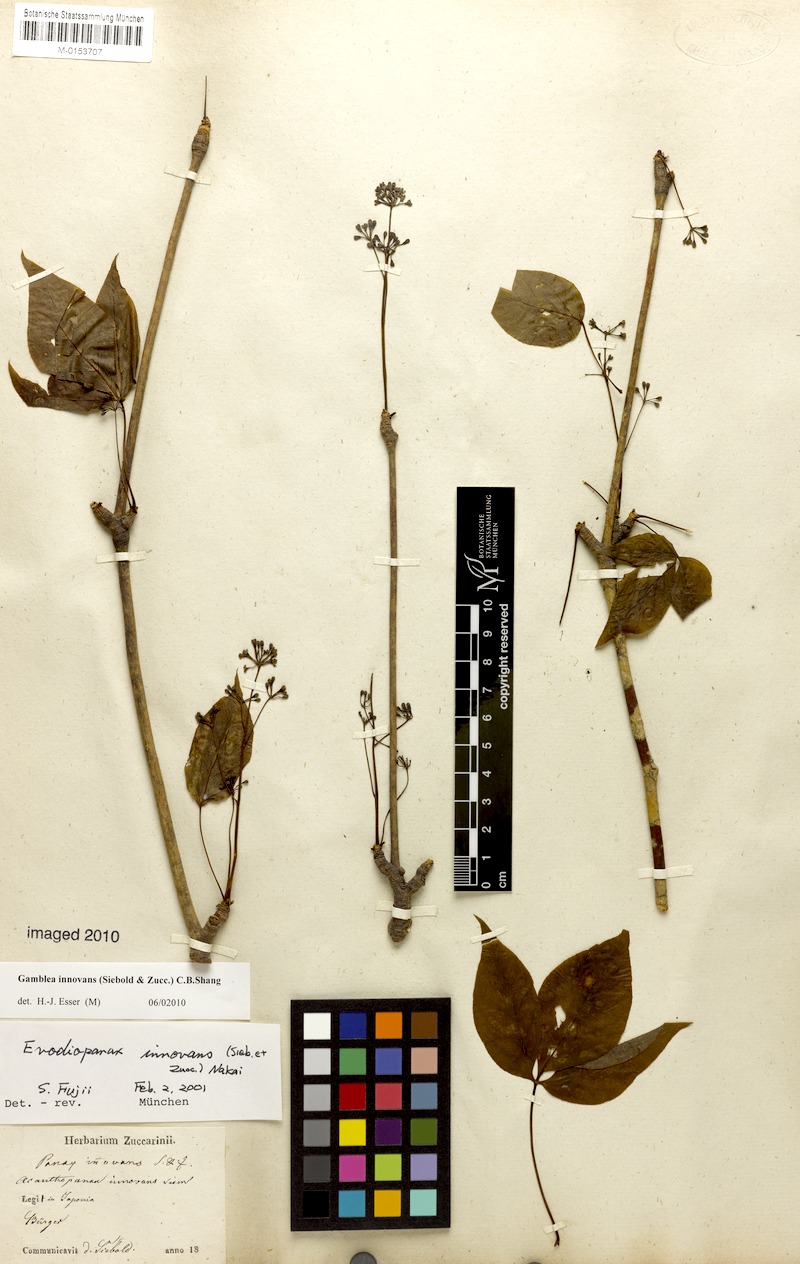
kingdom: Plantae
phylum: Tracheophyta
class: Magnoliopsida
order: Apiales
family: Araliaceae
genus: Gamblea
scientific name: Gamblea innovans
